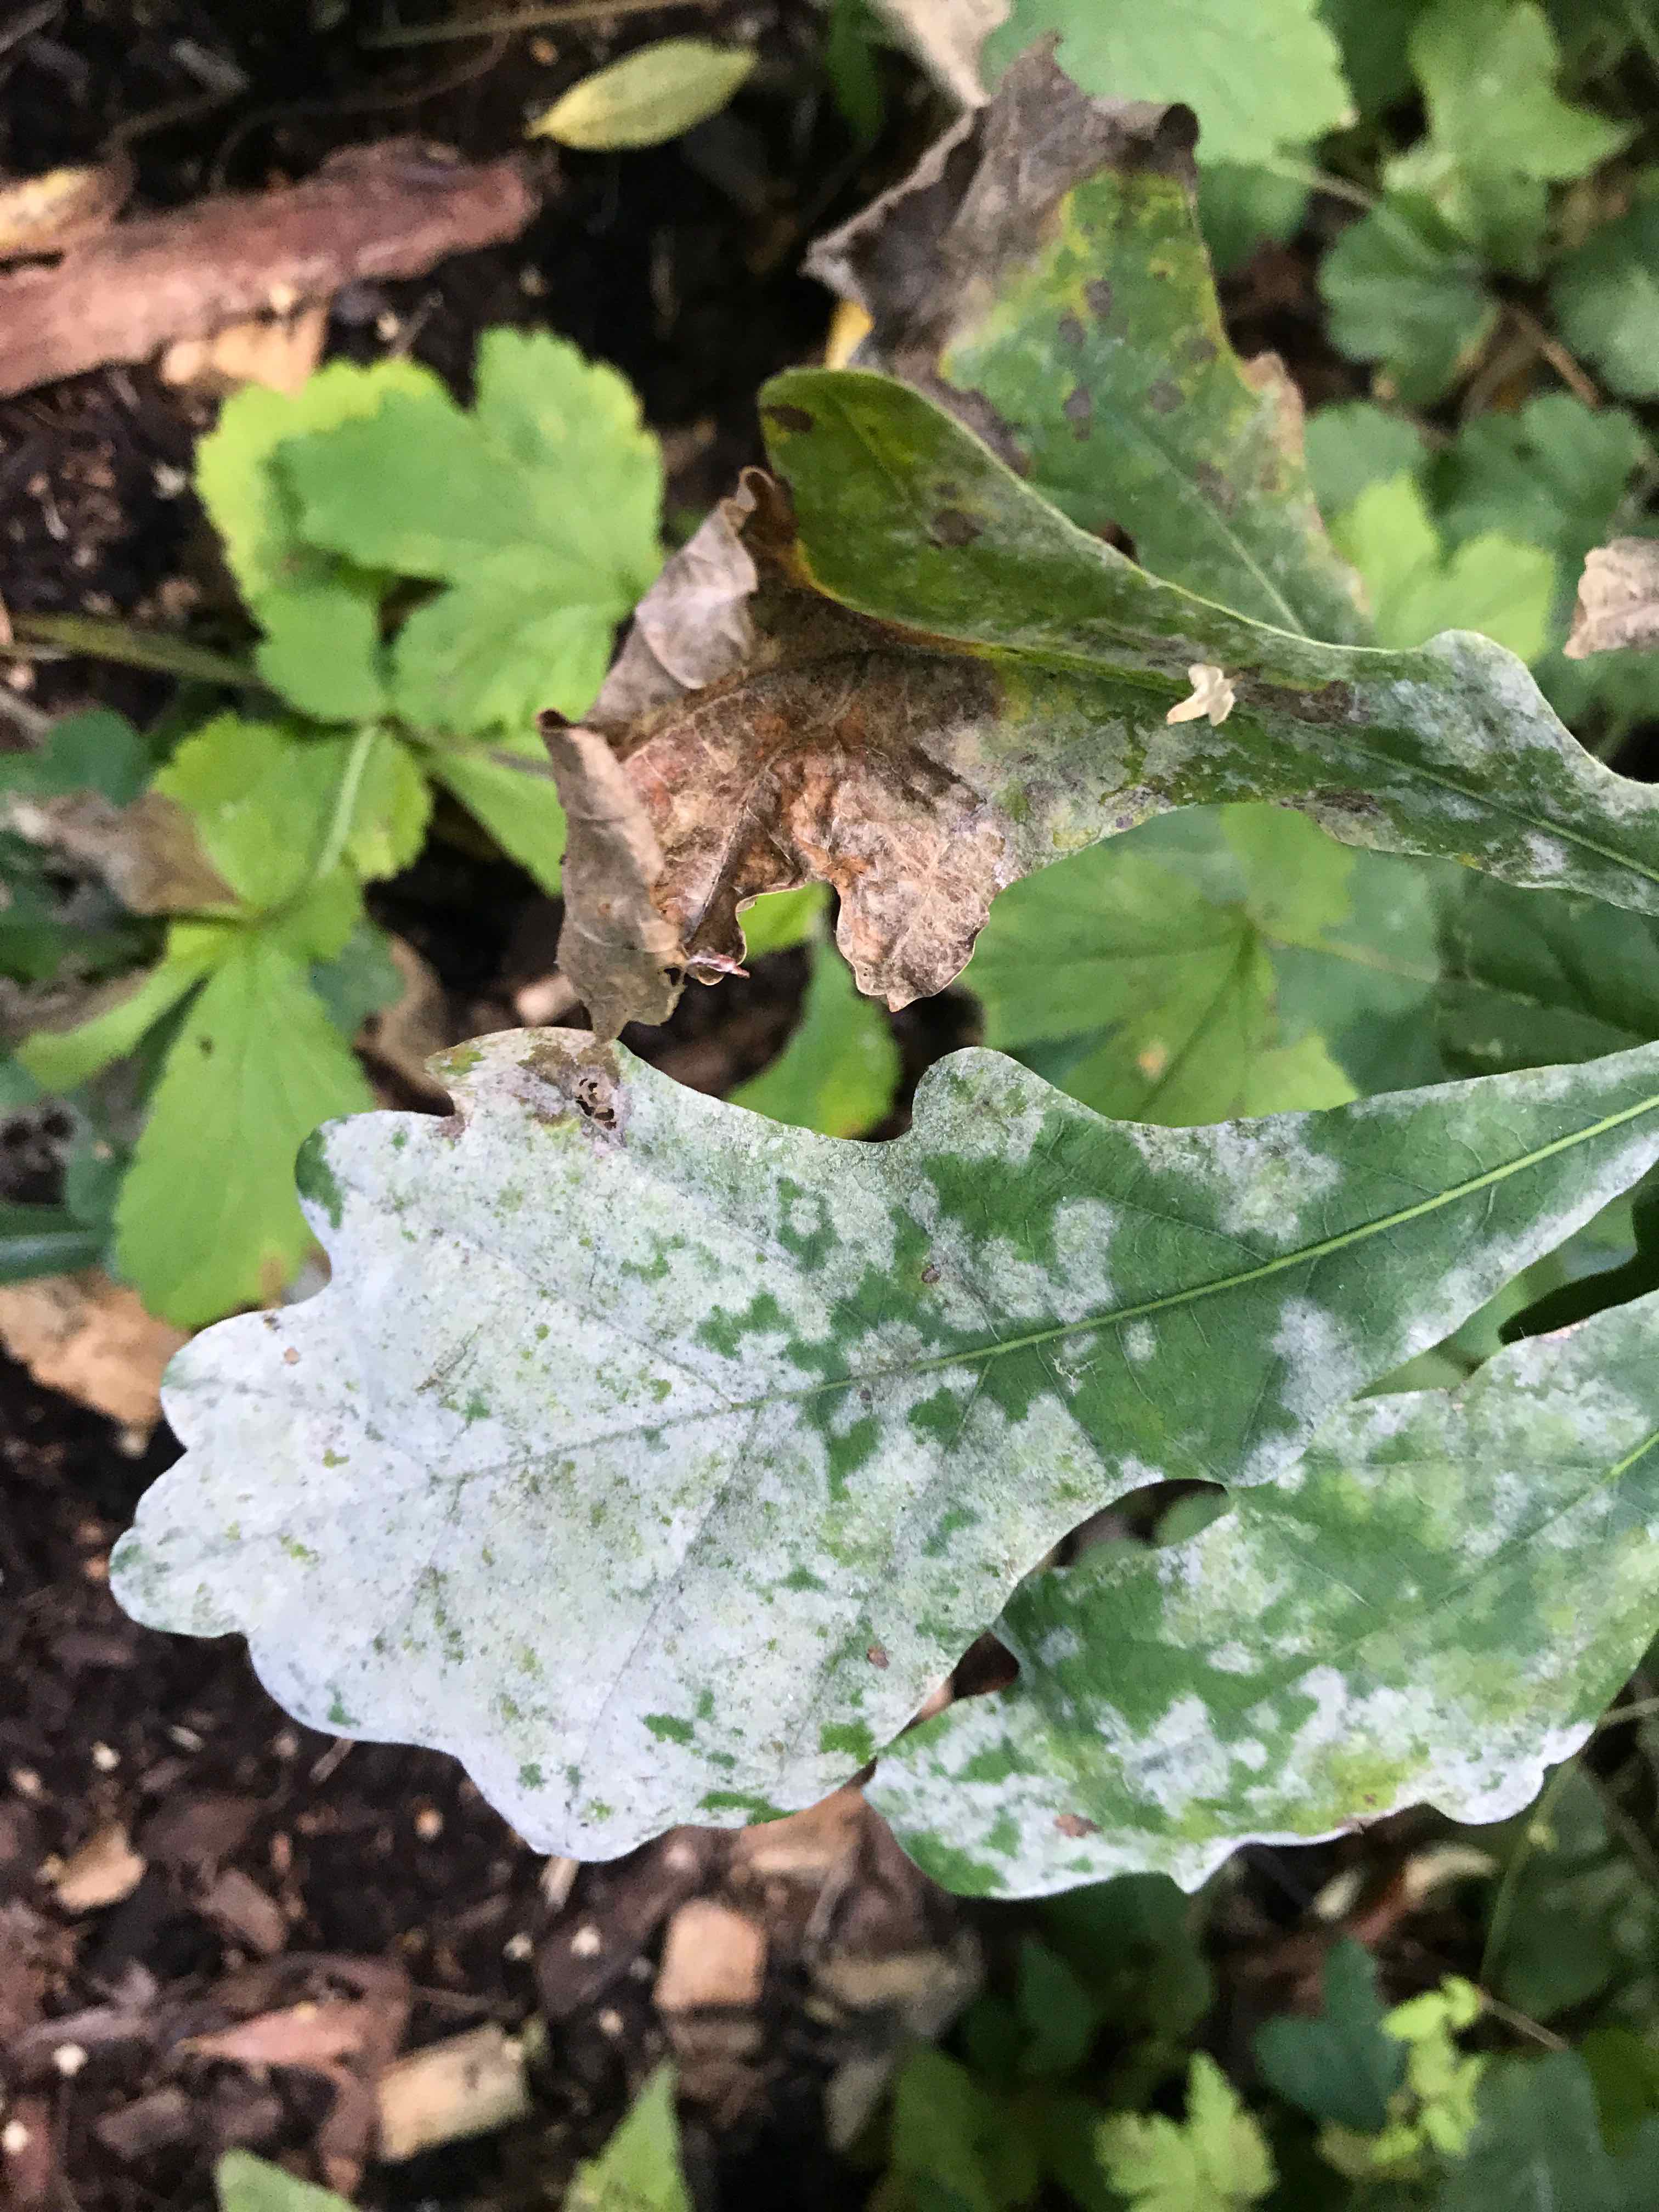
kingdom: Fungi
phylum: Ascomycota
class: Leotiomycetes
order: Helotiales
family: Erysiphaceae
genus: Erysiphe
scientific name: Erysiphe alphitoides
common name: ege-meldug
